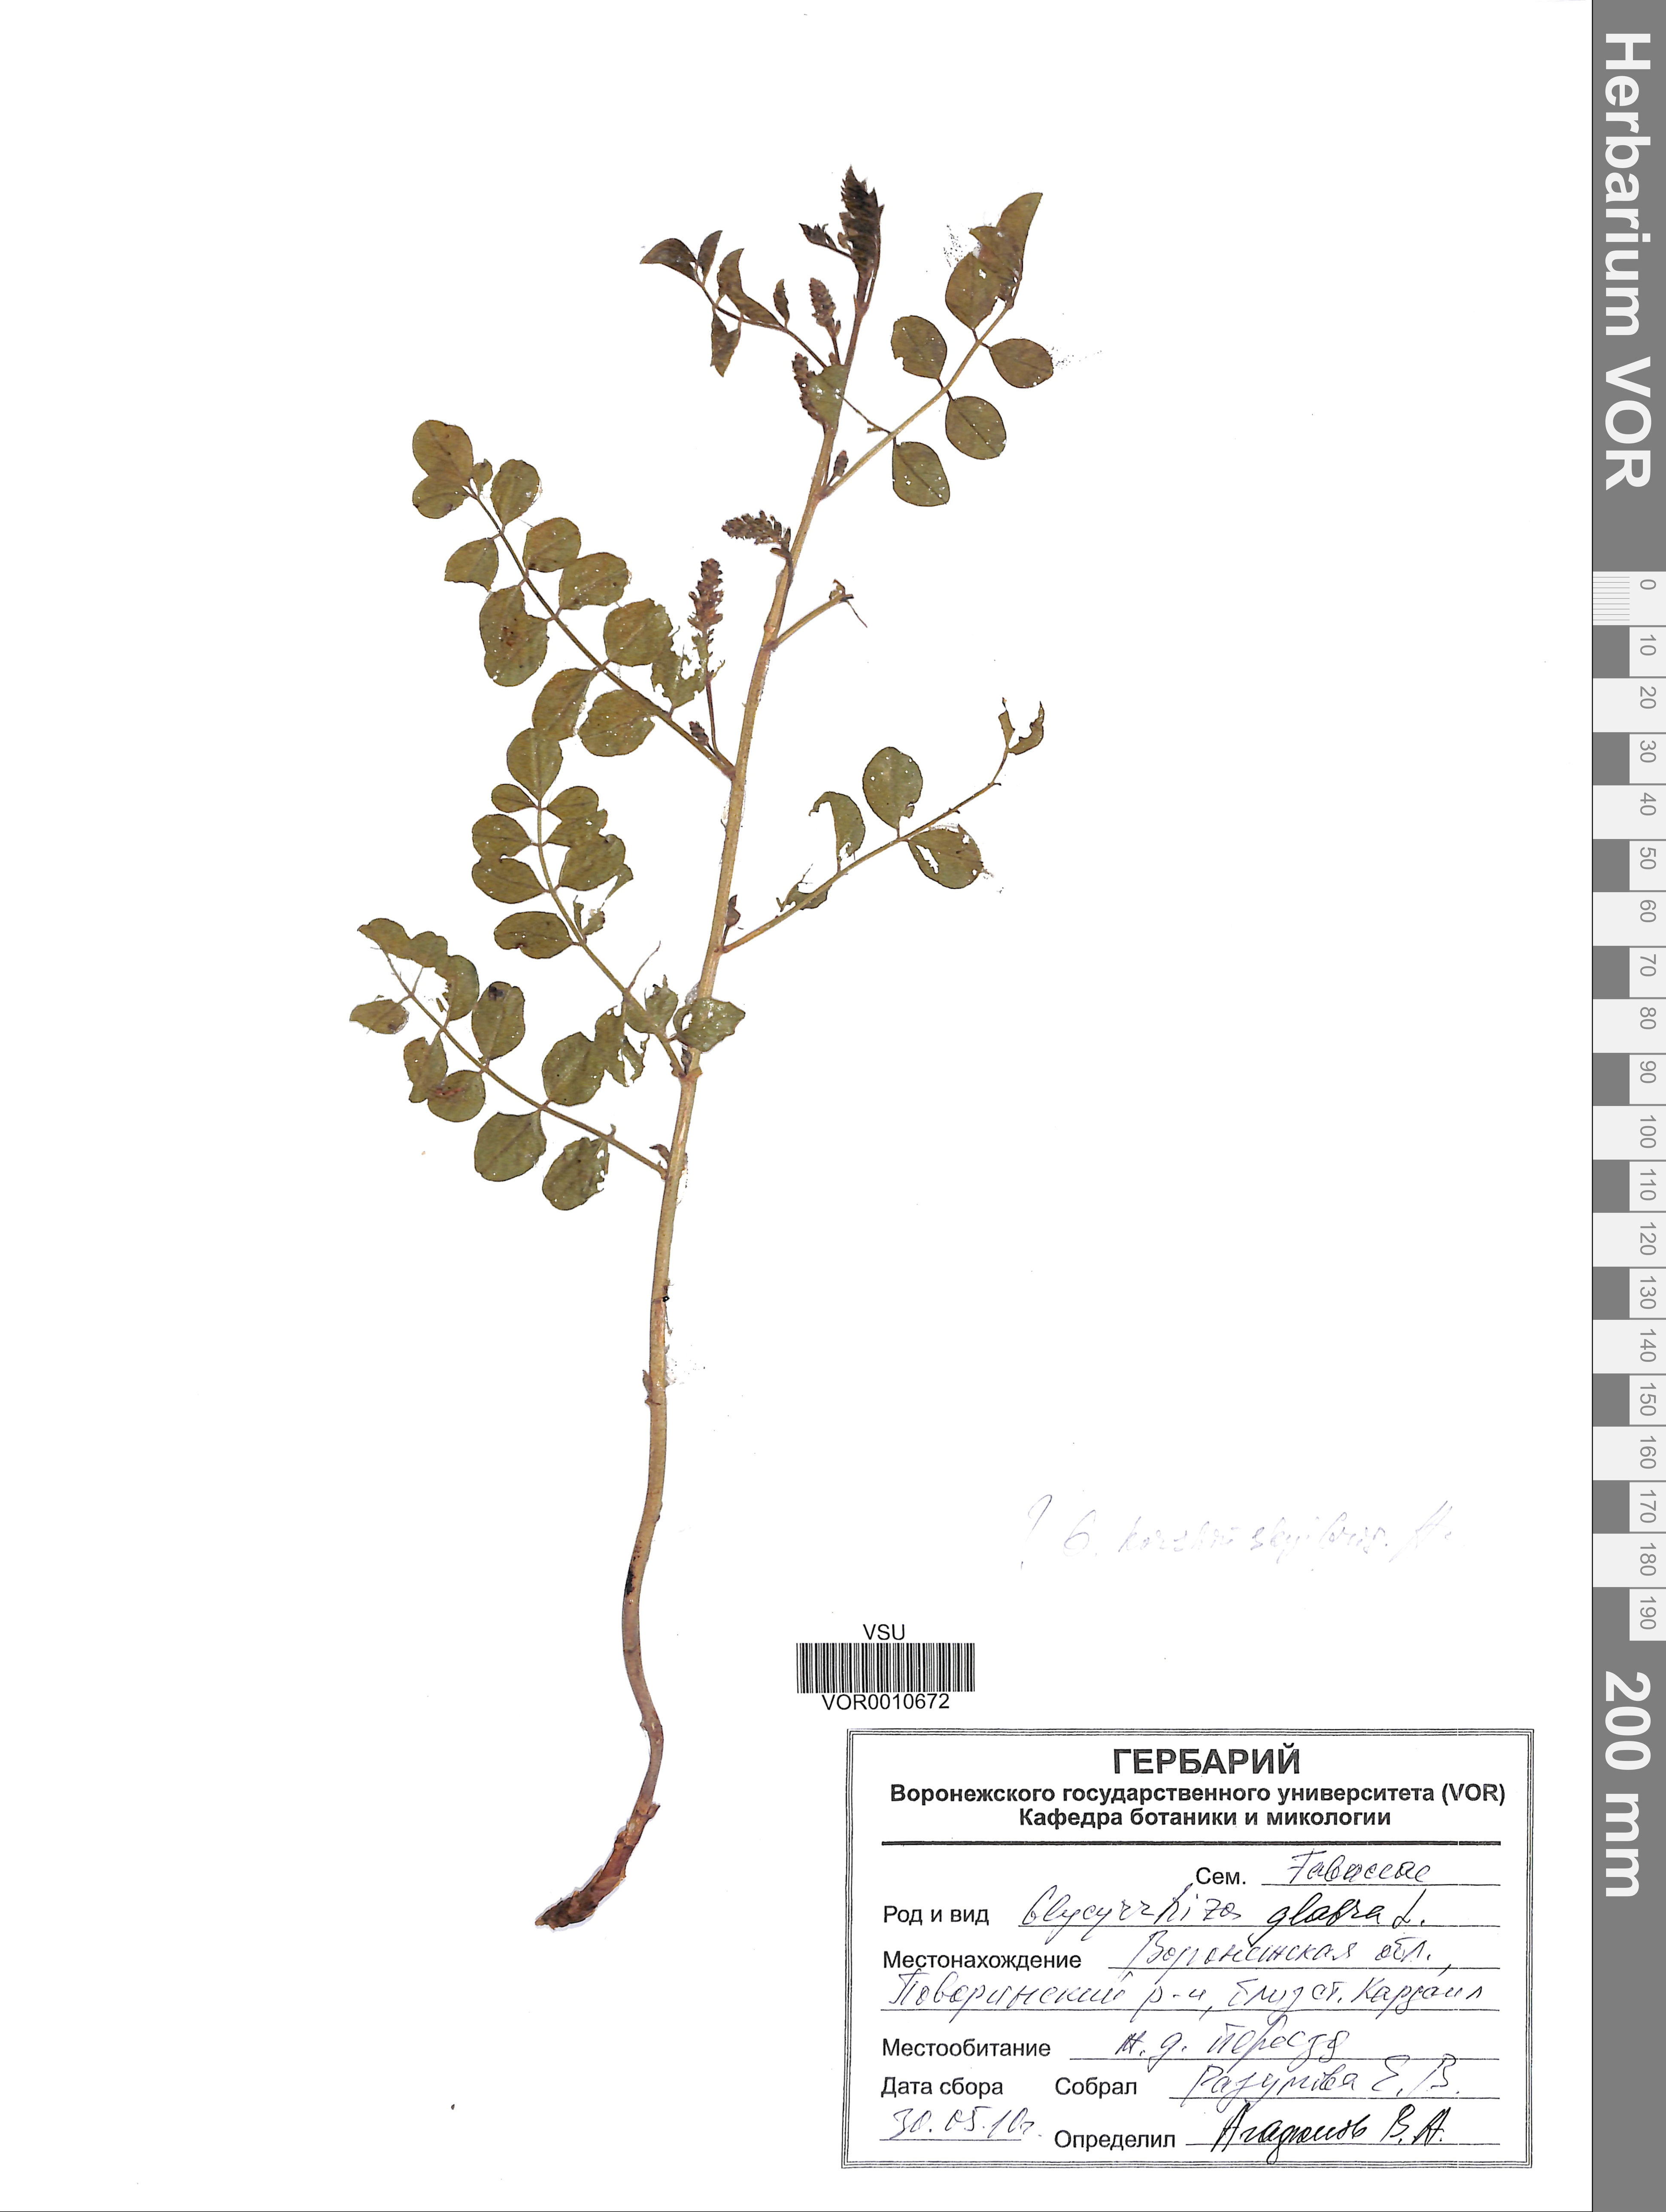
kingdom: Plantae
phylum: Tracheophyta
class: Magnoliopsida
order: Fabales
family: Fabaceae
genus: Glycyrrhiza
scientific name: Glycyrrhiza glabra
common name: Liquorice
